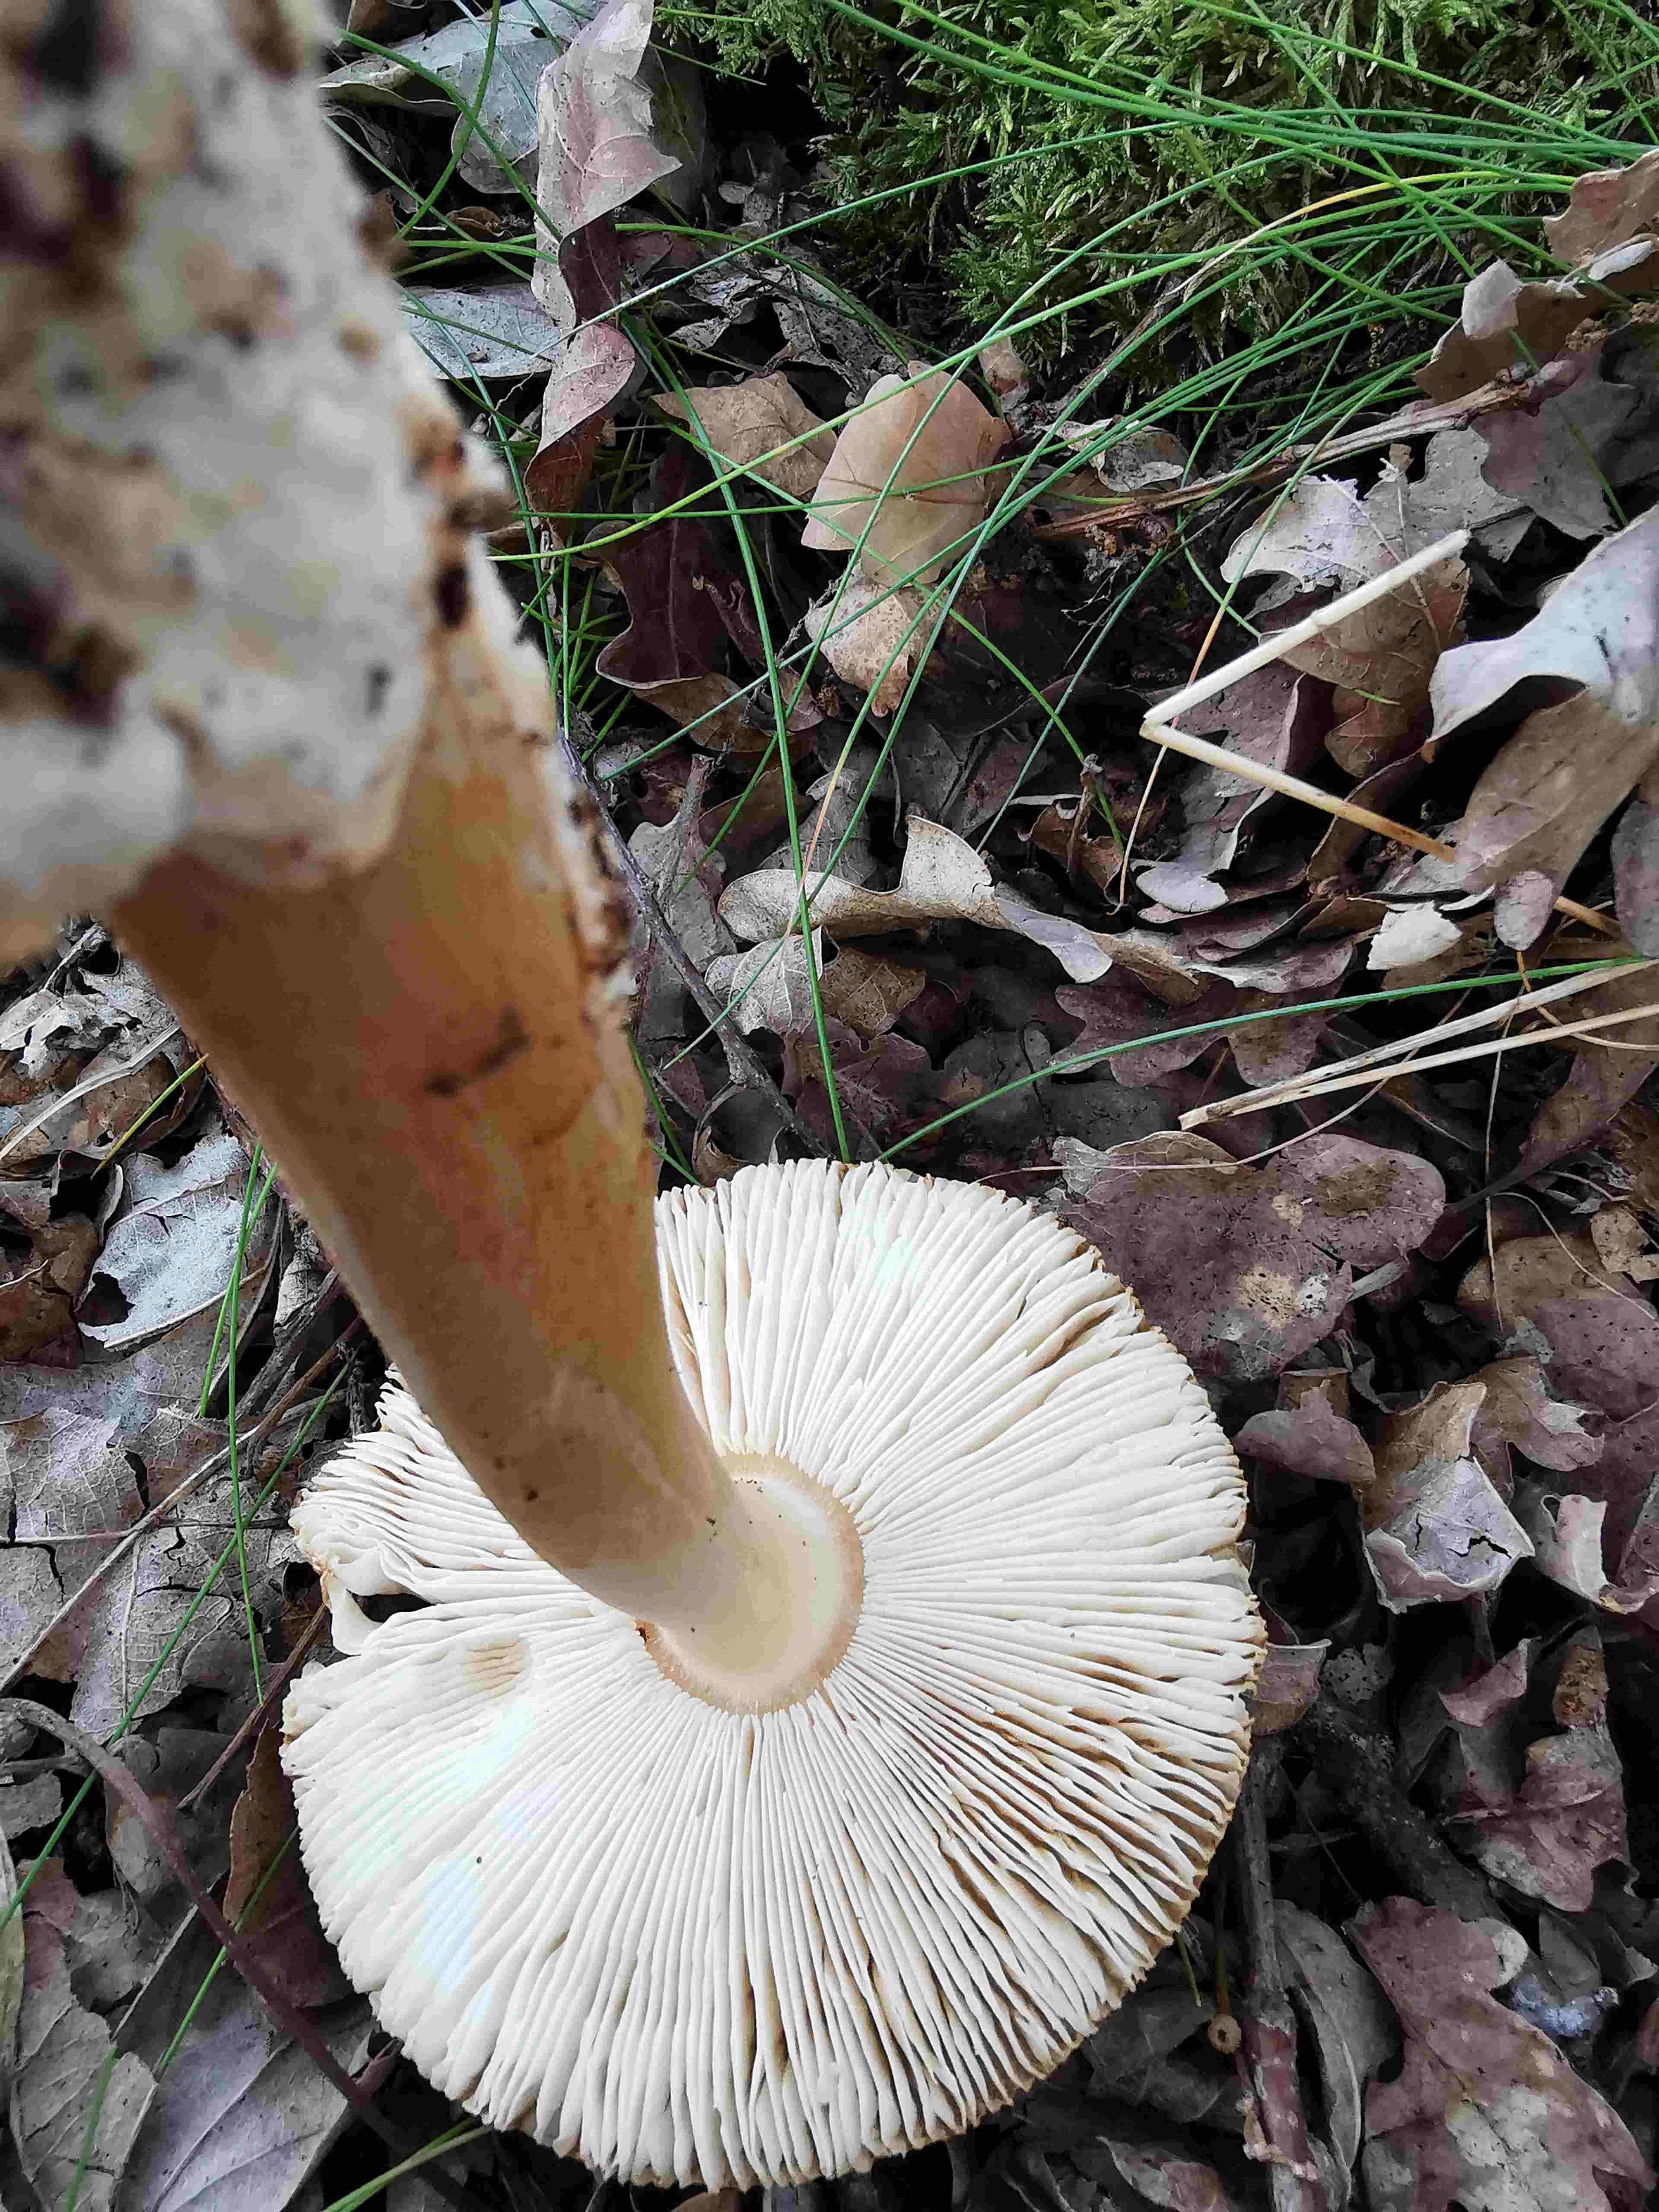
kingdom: Fungi
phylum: Basidiomycota
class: Agaricomycetes
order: Agaricales
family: Amanitaceae
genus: Amanita
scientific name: Amanita fulva
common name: brun kam-fluesvamp
